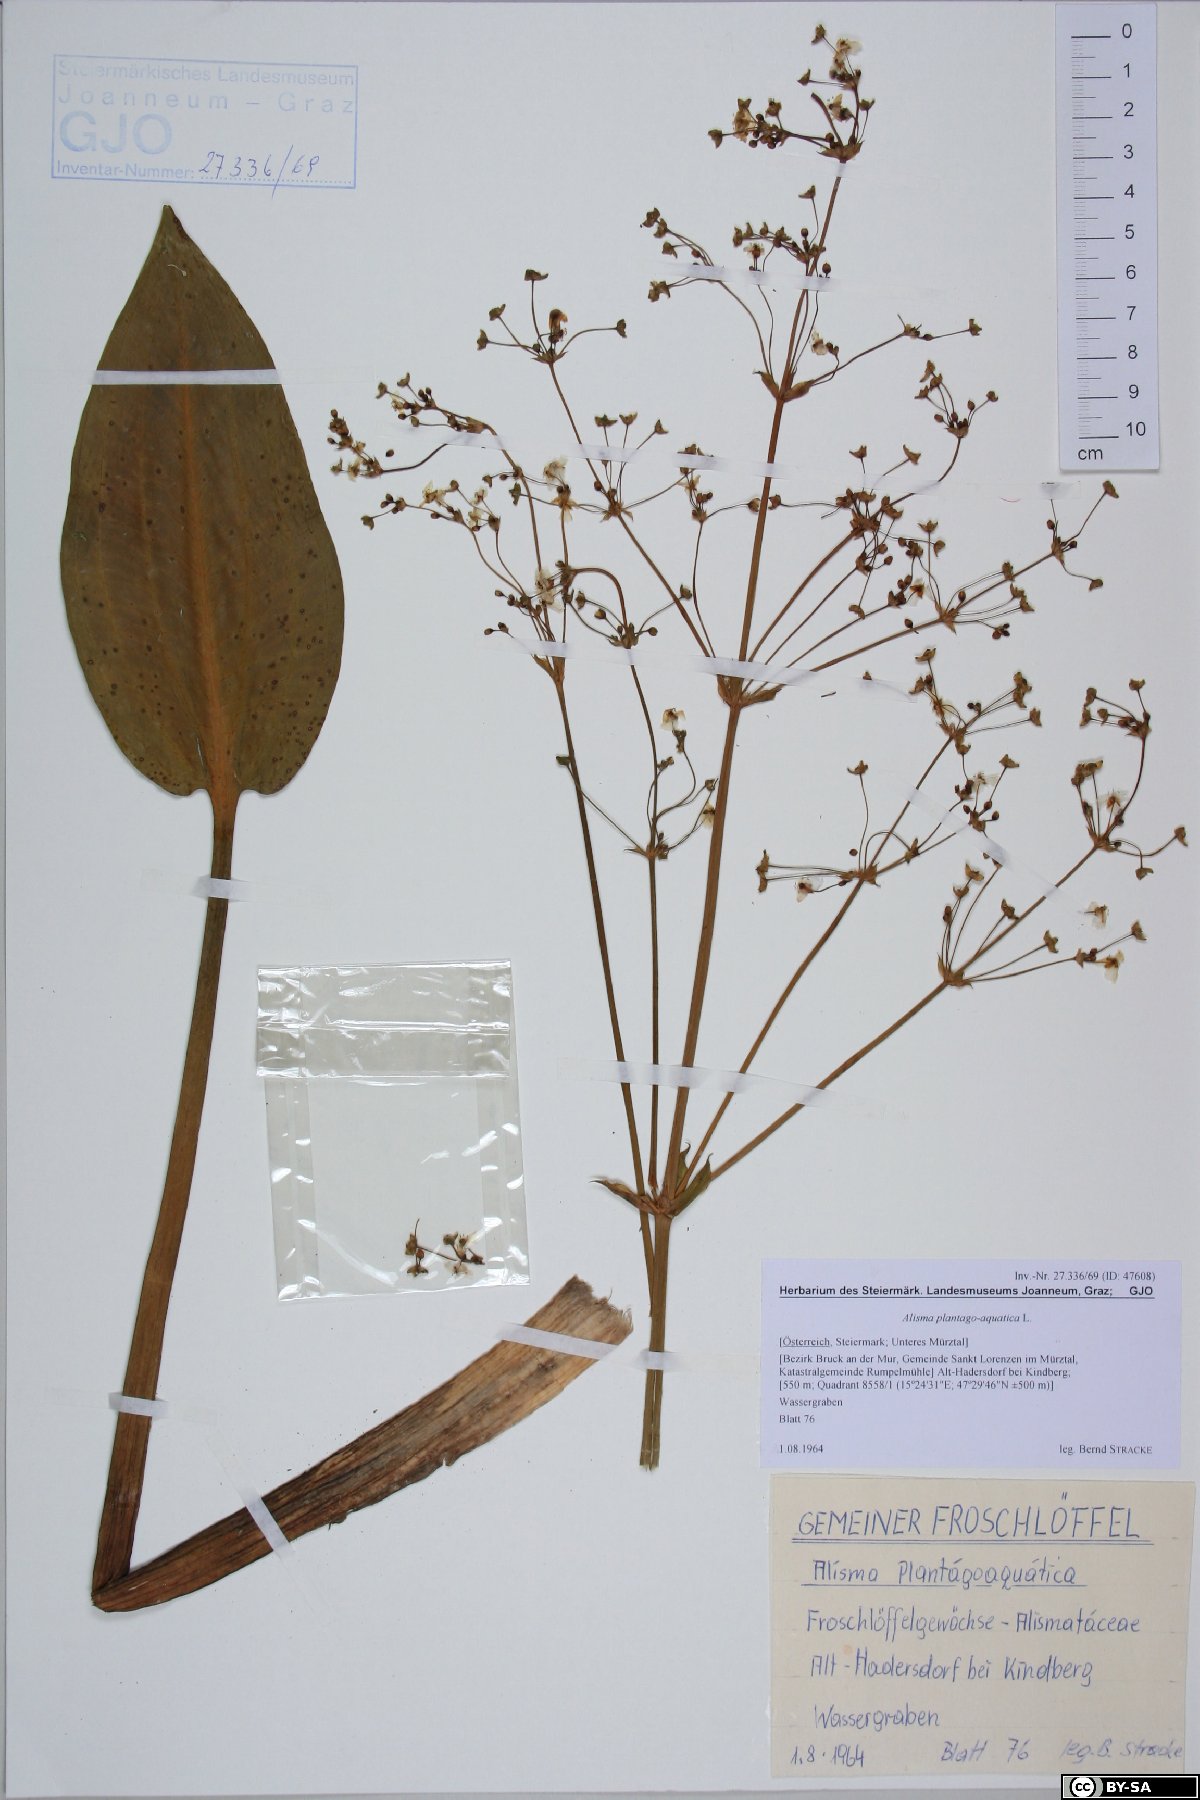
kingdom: Plantae
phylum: Tracheophyta
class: Liliopsida
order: Alismatales
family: Alismataceae
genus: Alisma
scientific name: Alisma plantago-aquatica
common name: Water-plantain
